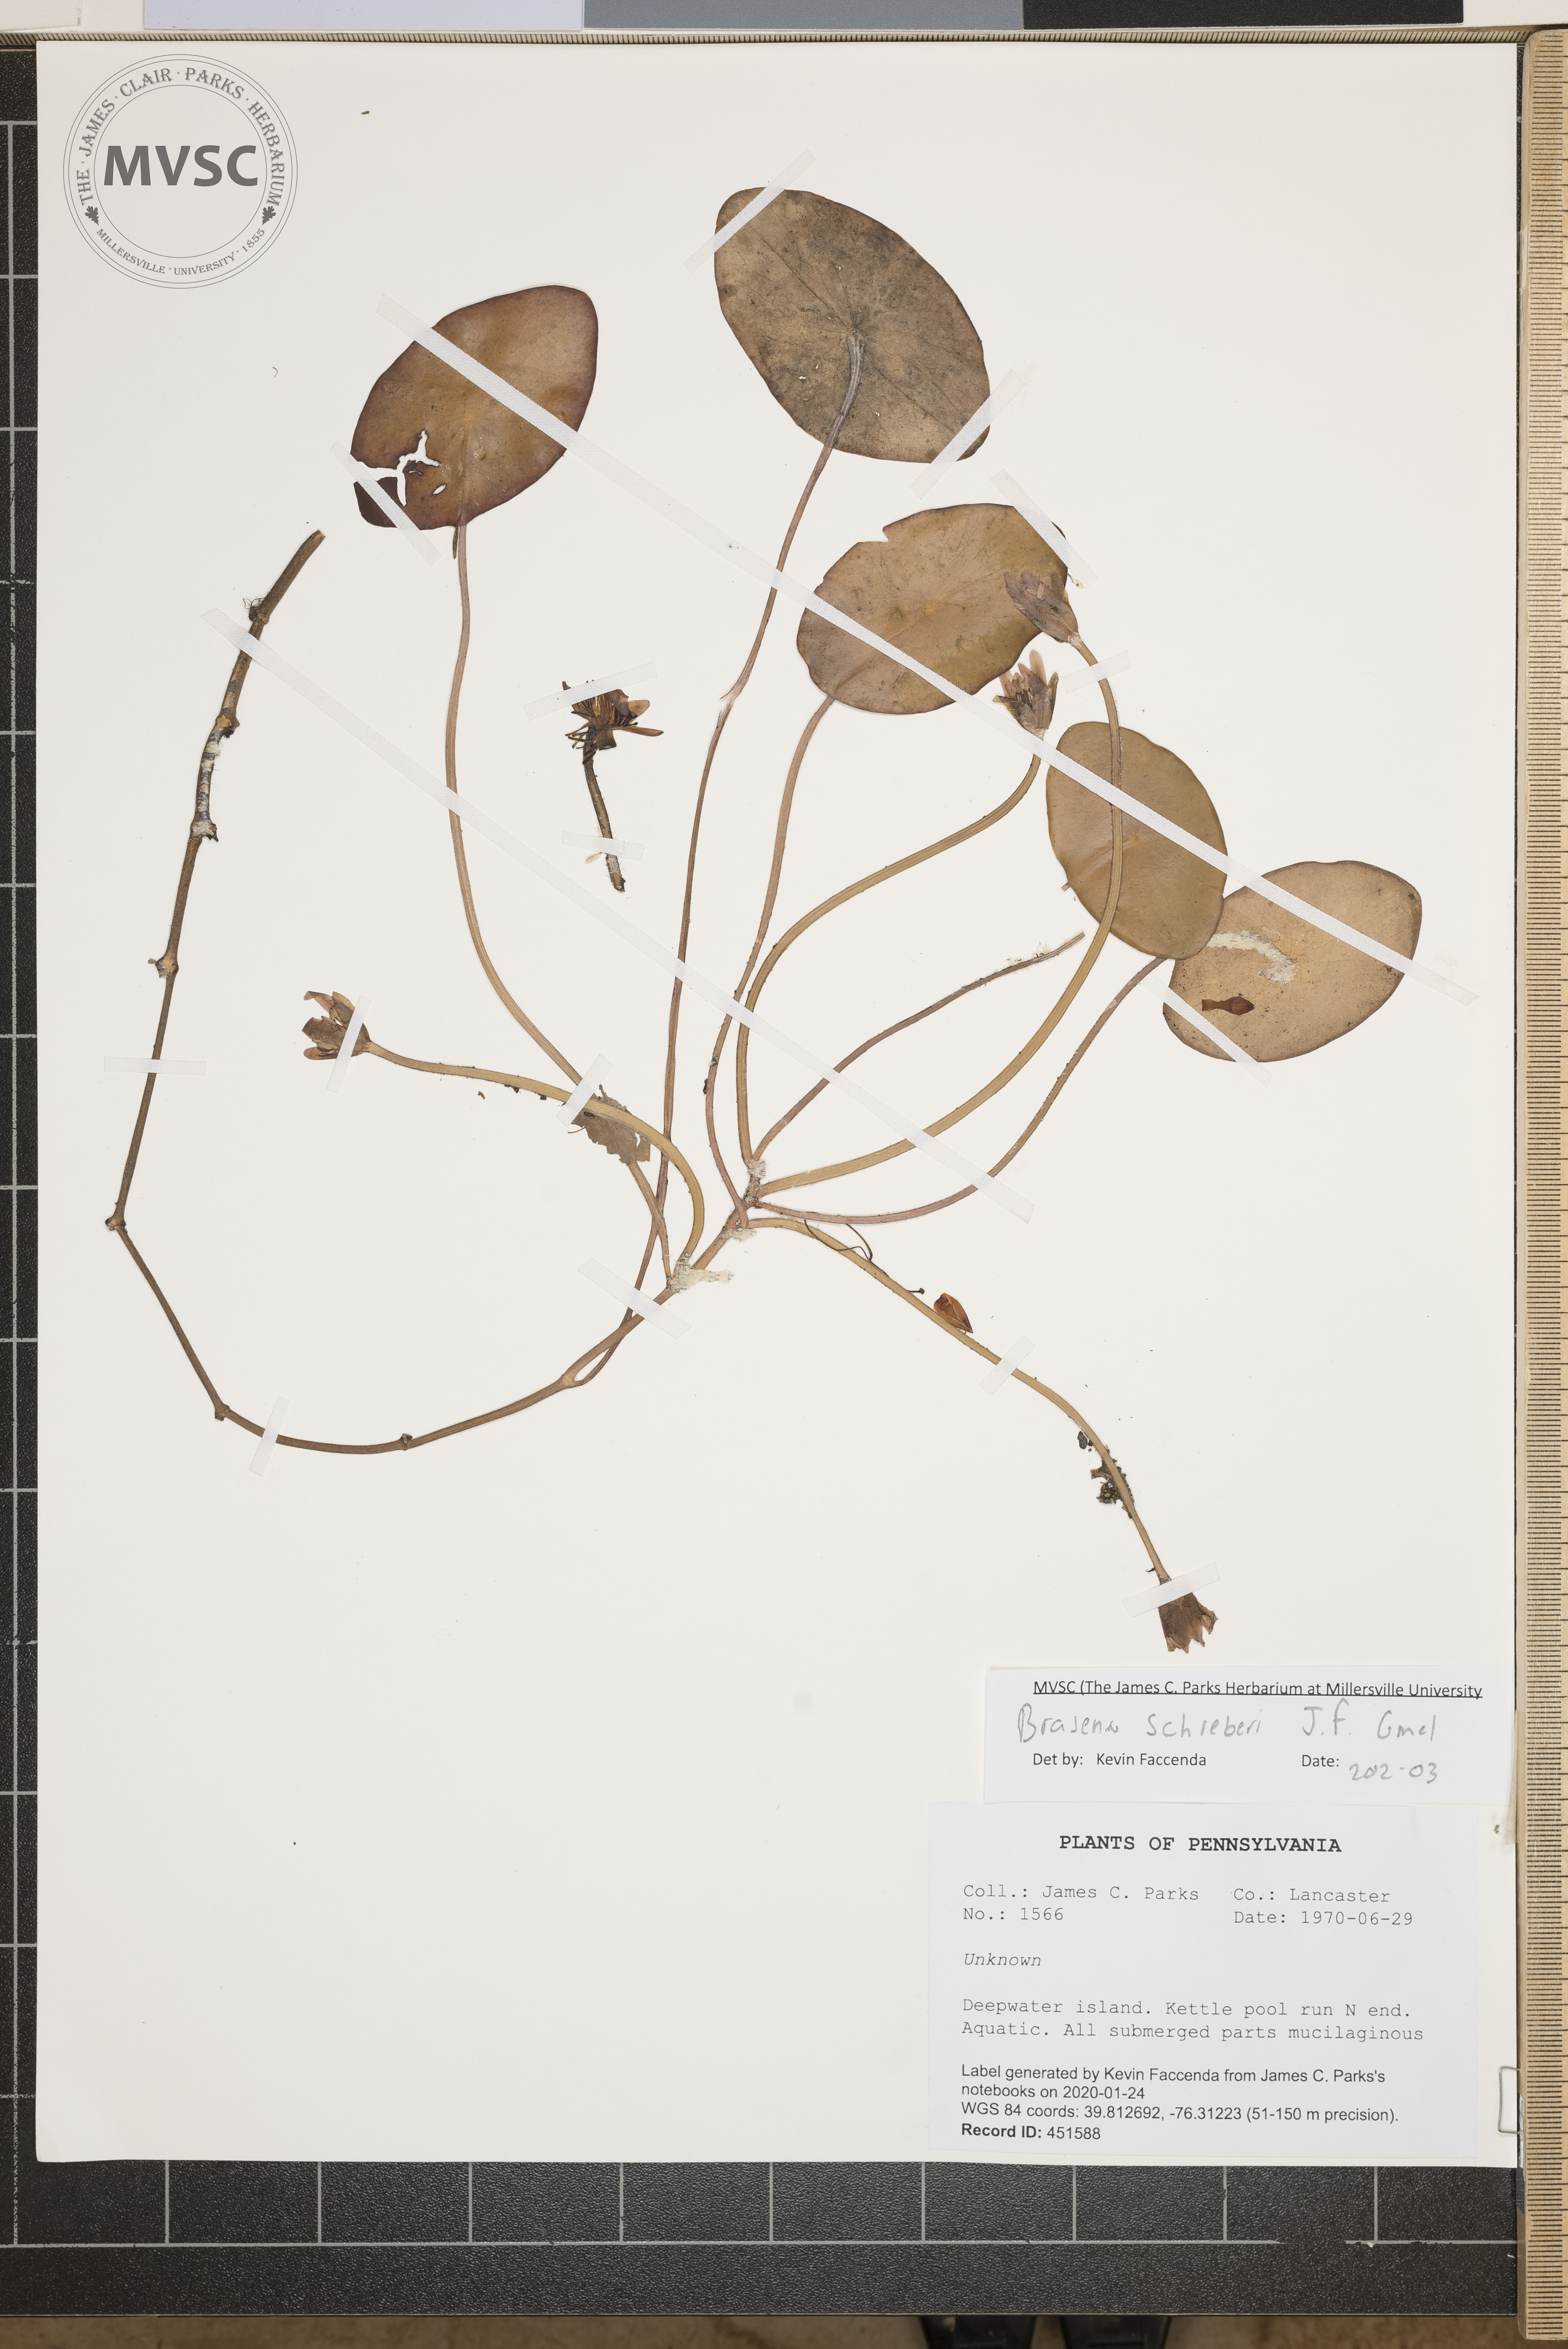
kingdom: Plantae
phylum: Tracheophyta
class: Magnoliopsida
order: Nymphaeales
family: Cabombaceae
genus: Brasenia
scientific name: Brasenia schreberi
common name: Water-shield
